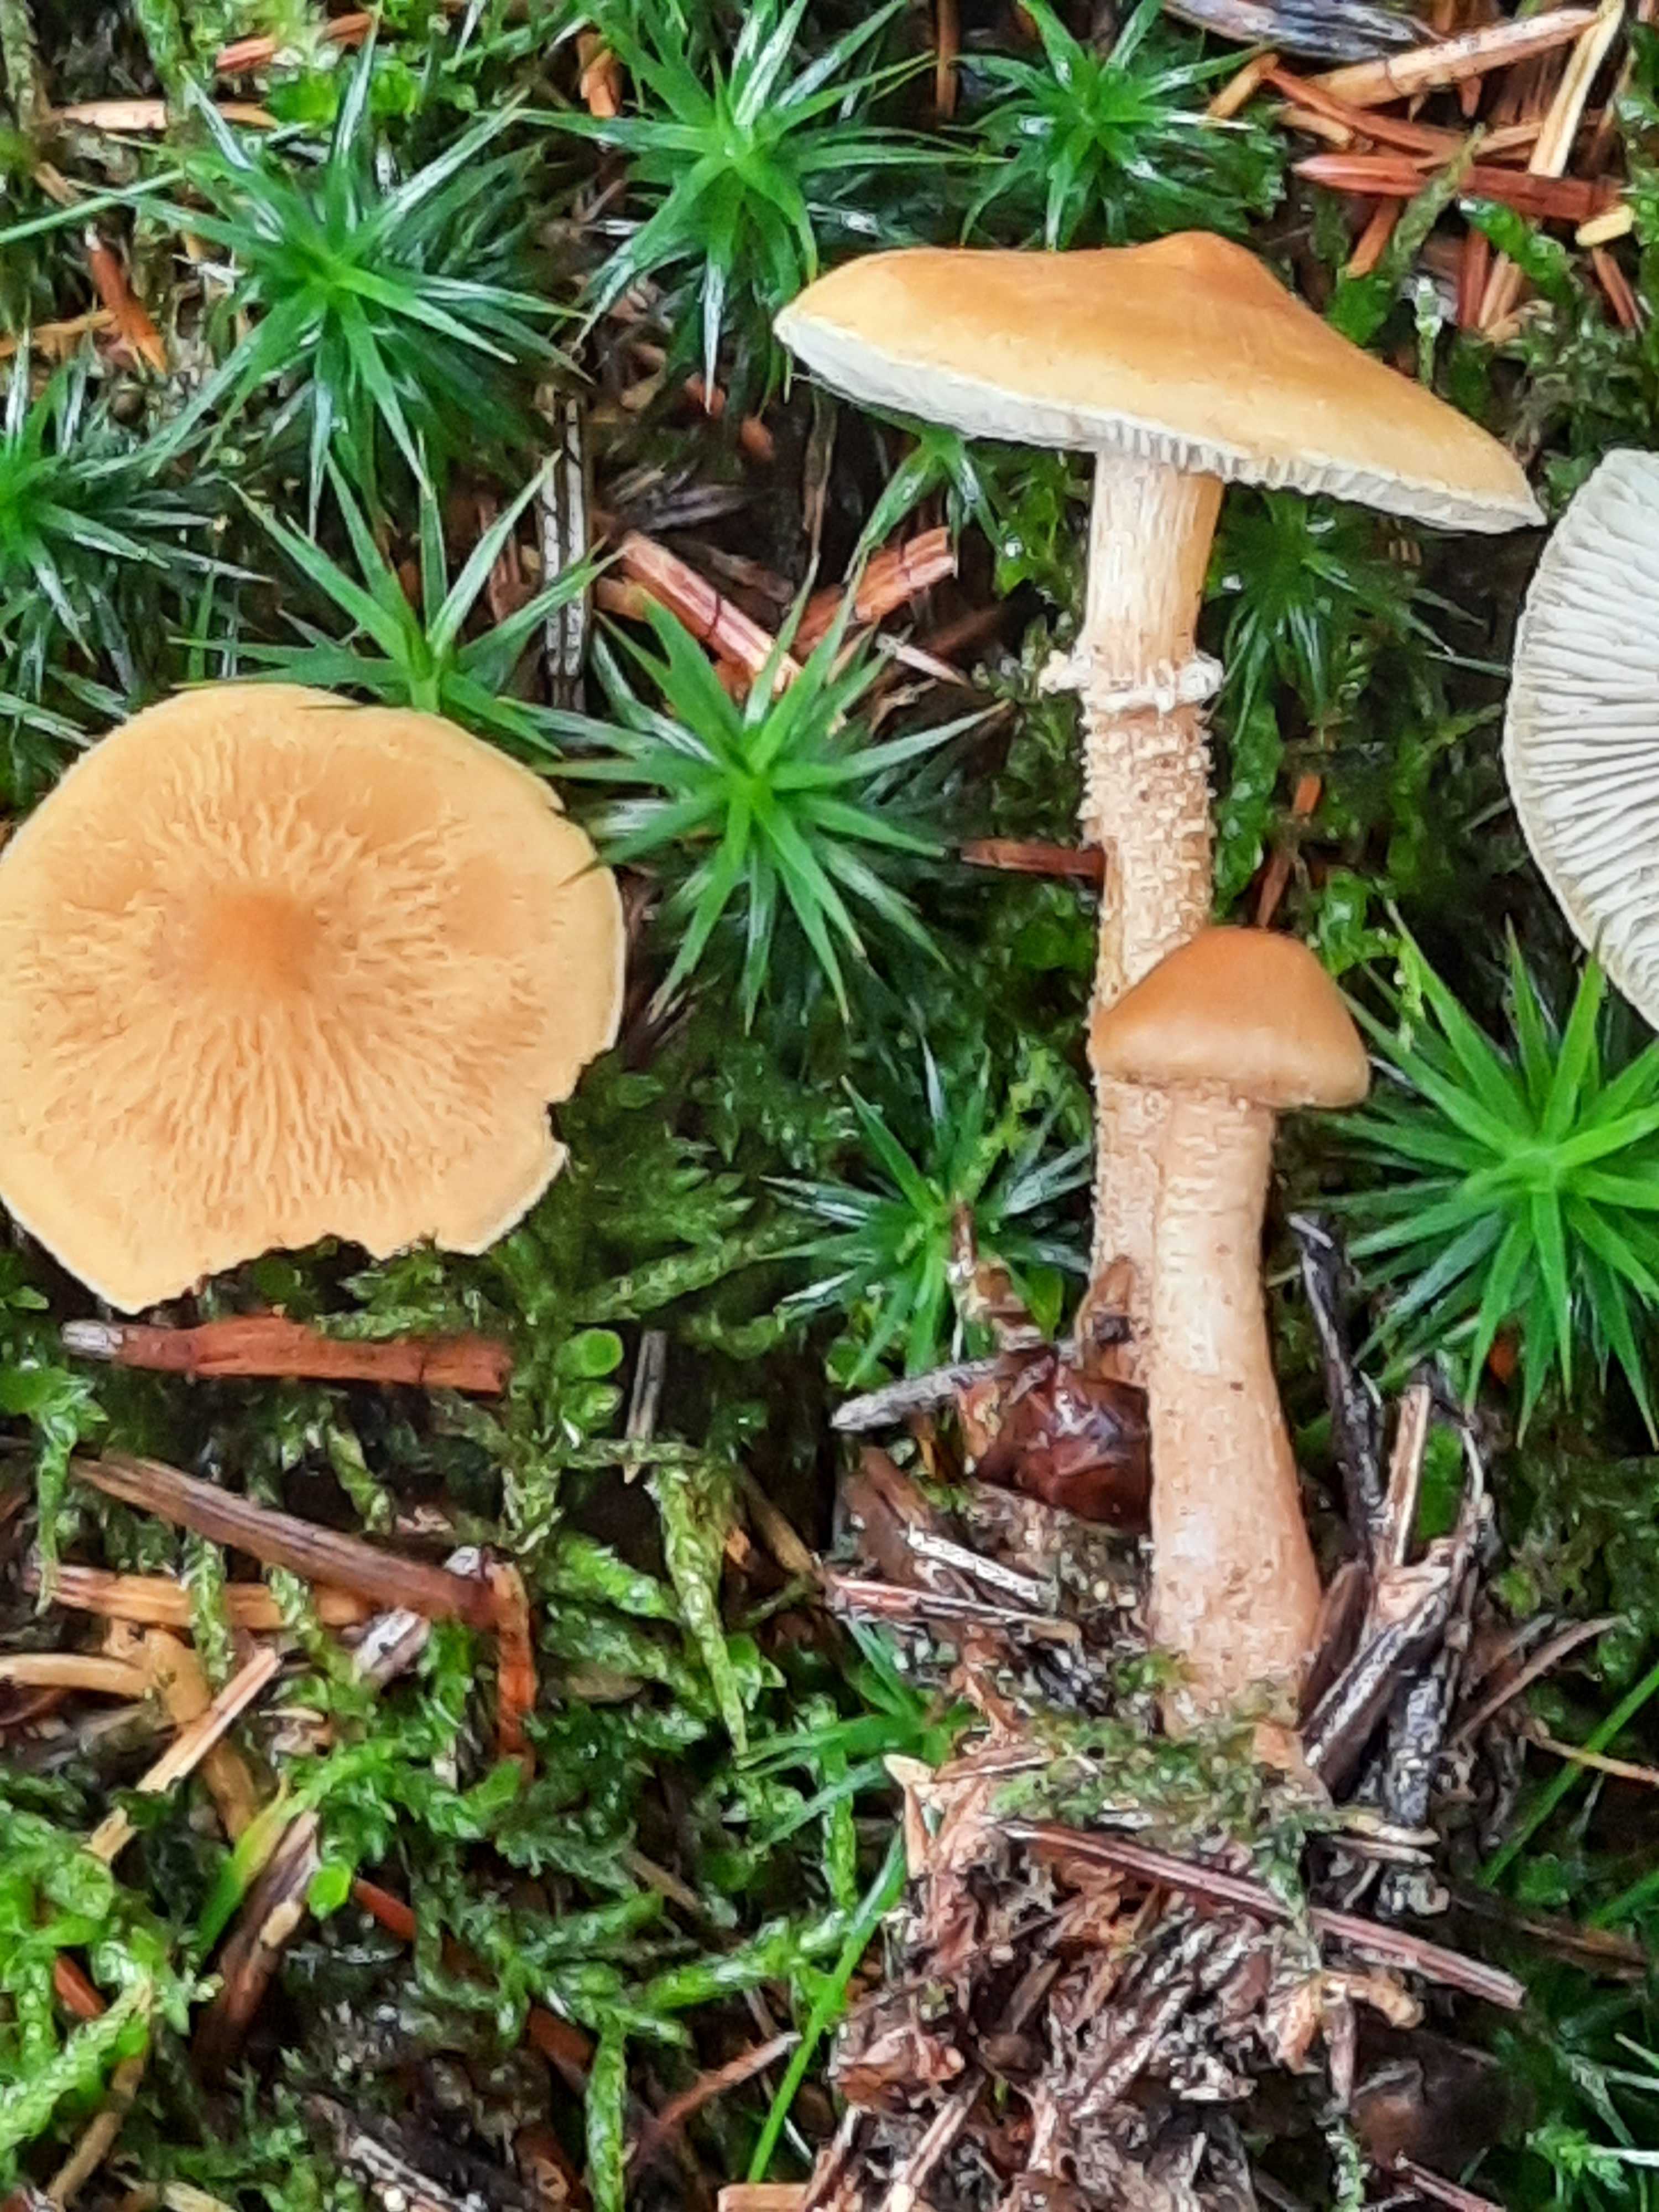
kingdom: Fungi
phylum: Basidiomycota
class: Agaricomycetes
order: Agaricales
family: Tricholomataceae
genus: Cystoderma
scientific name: Cystoderma amianthinum
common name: okkergul grynhat
